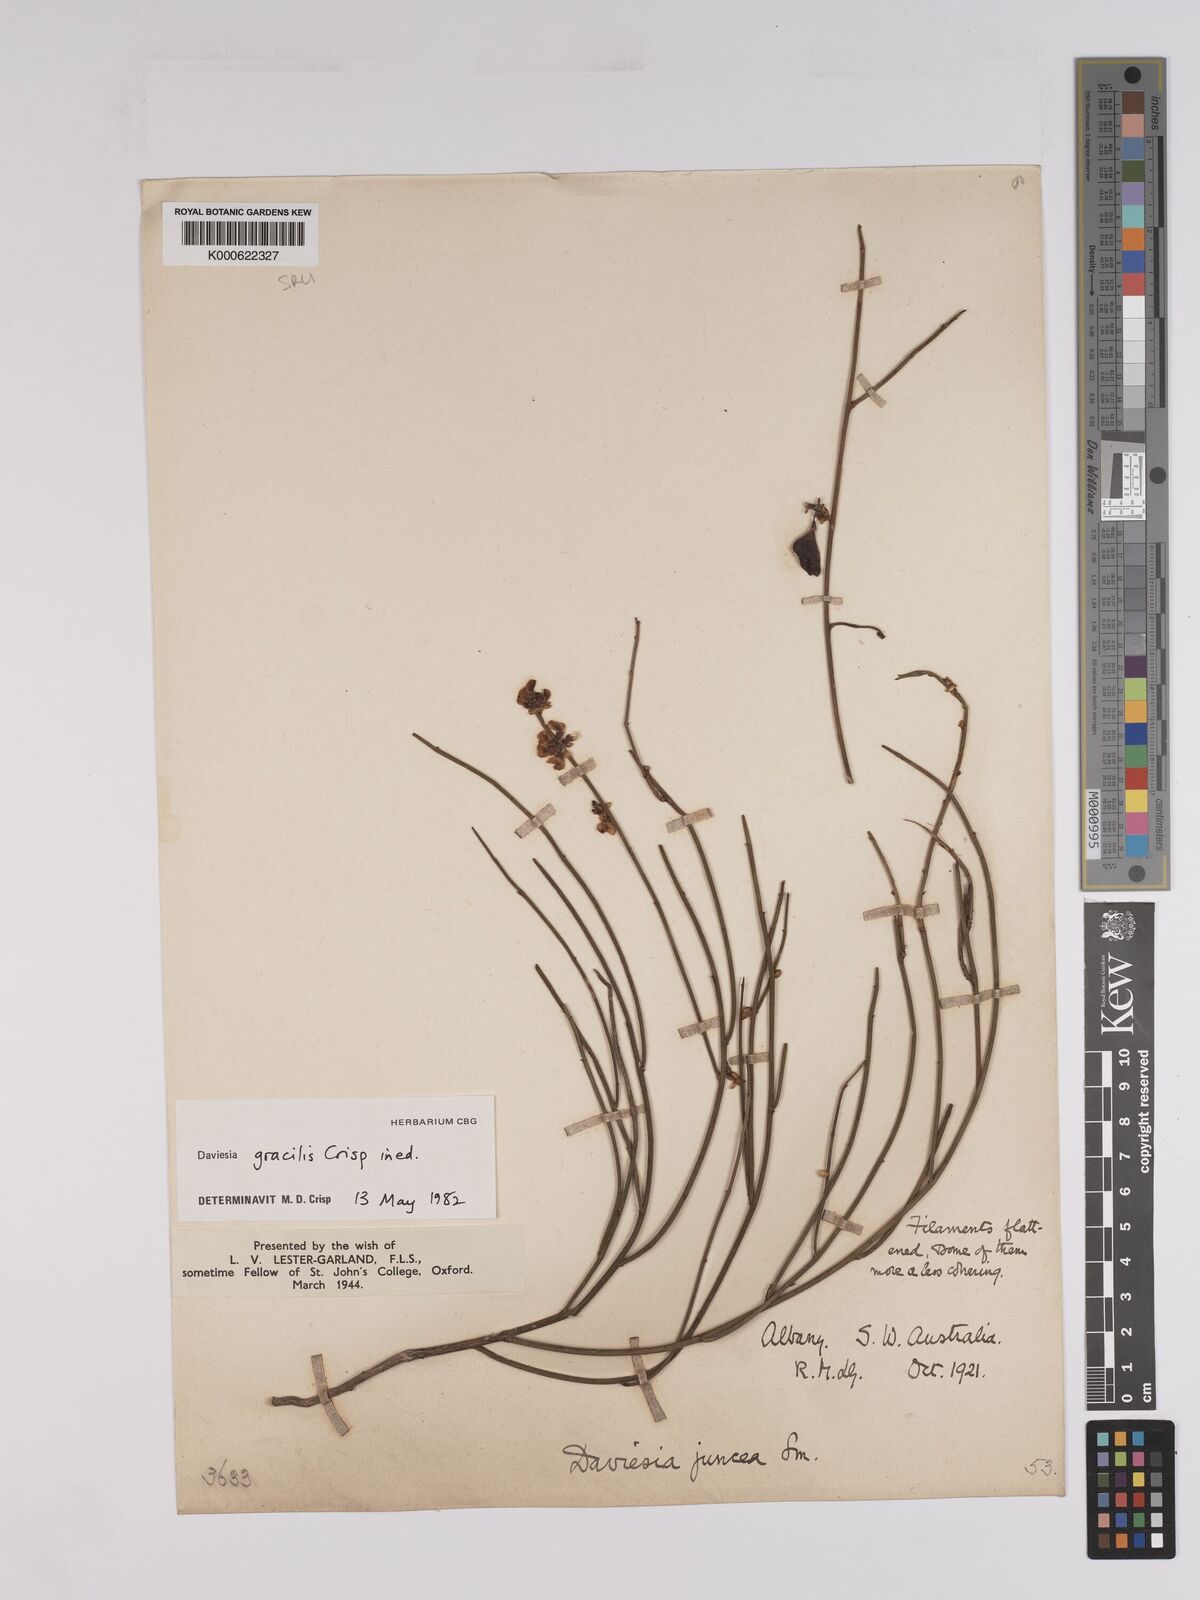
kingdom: Plantae
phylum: Tracheophyta
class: Magnoliopsida
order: Fabales
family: Fabaceae
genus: Daviesia
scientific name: Daviesia gracilis
